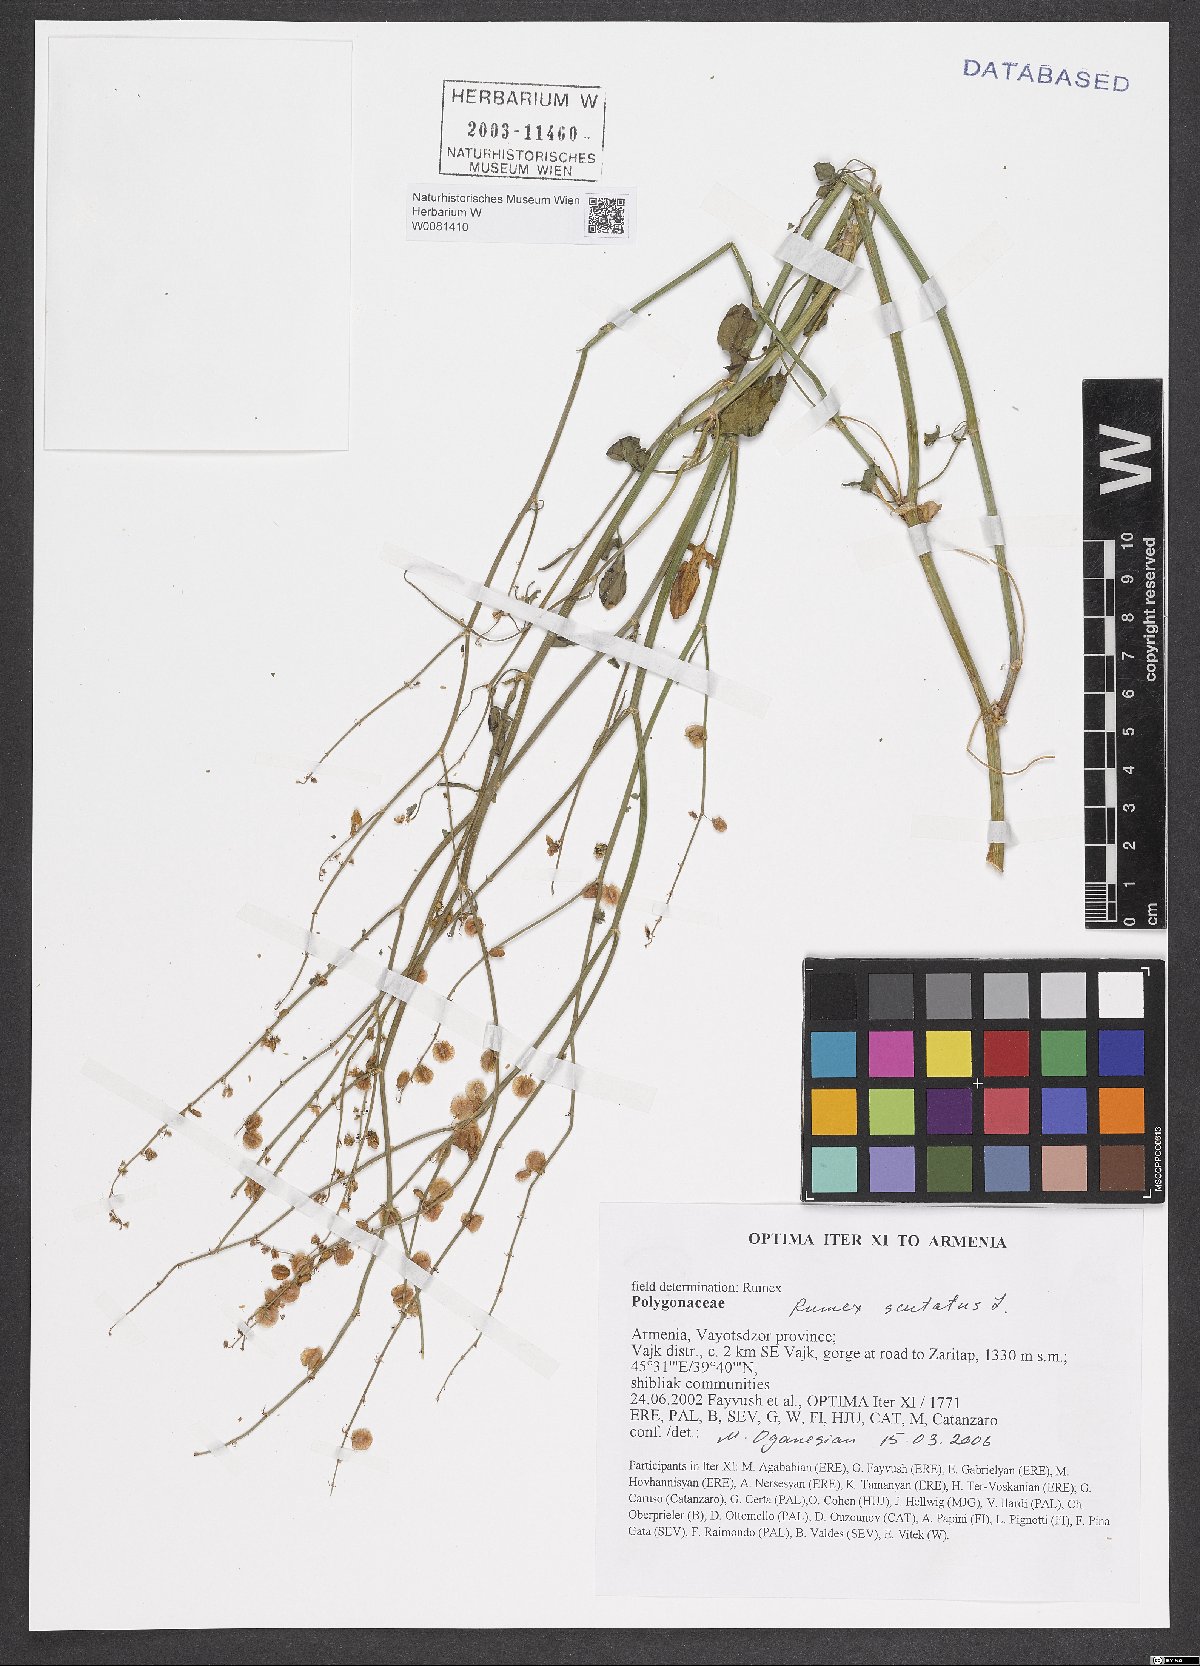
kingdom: Plantae
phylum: Tracheophyta
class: Magnoliopsida
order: Caryophyllales
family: Polygonaceae
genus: Rumex
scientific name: Rumex scutatus
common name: French sorrel
